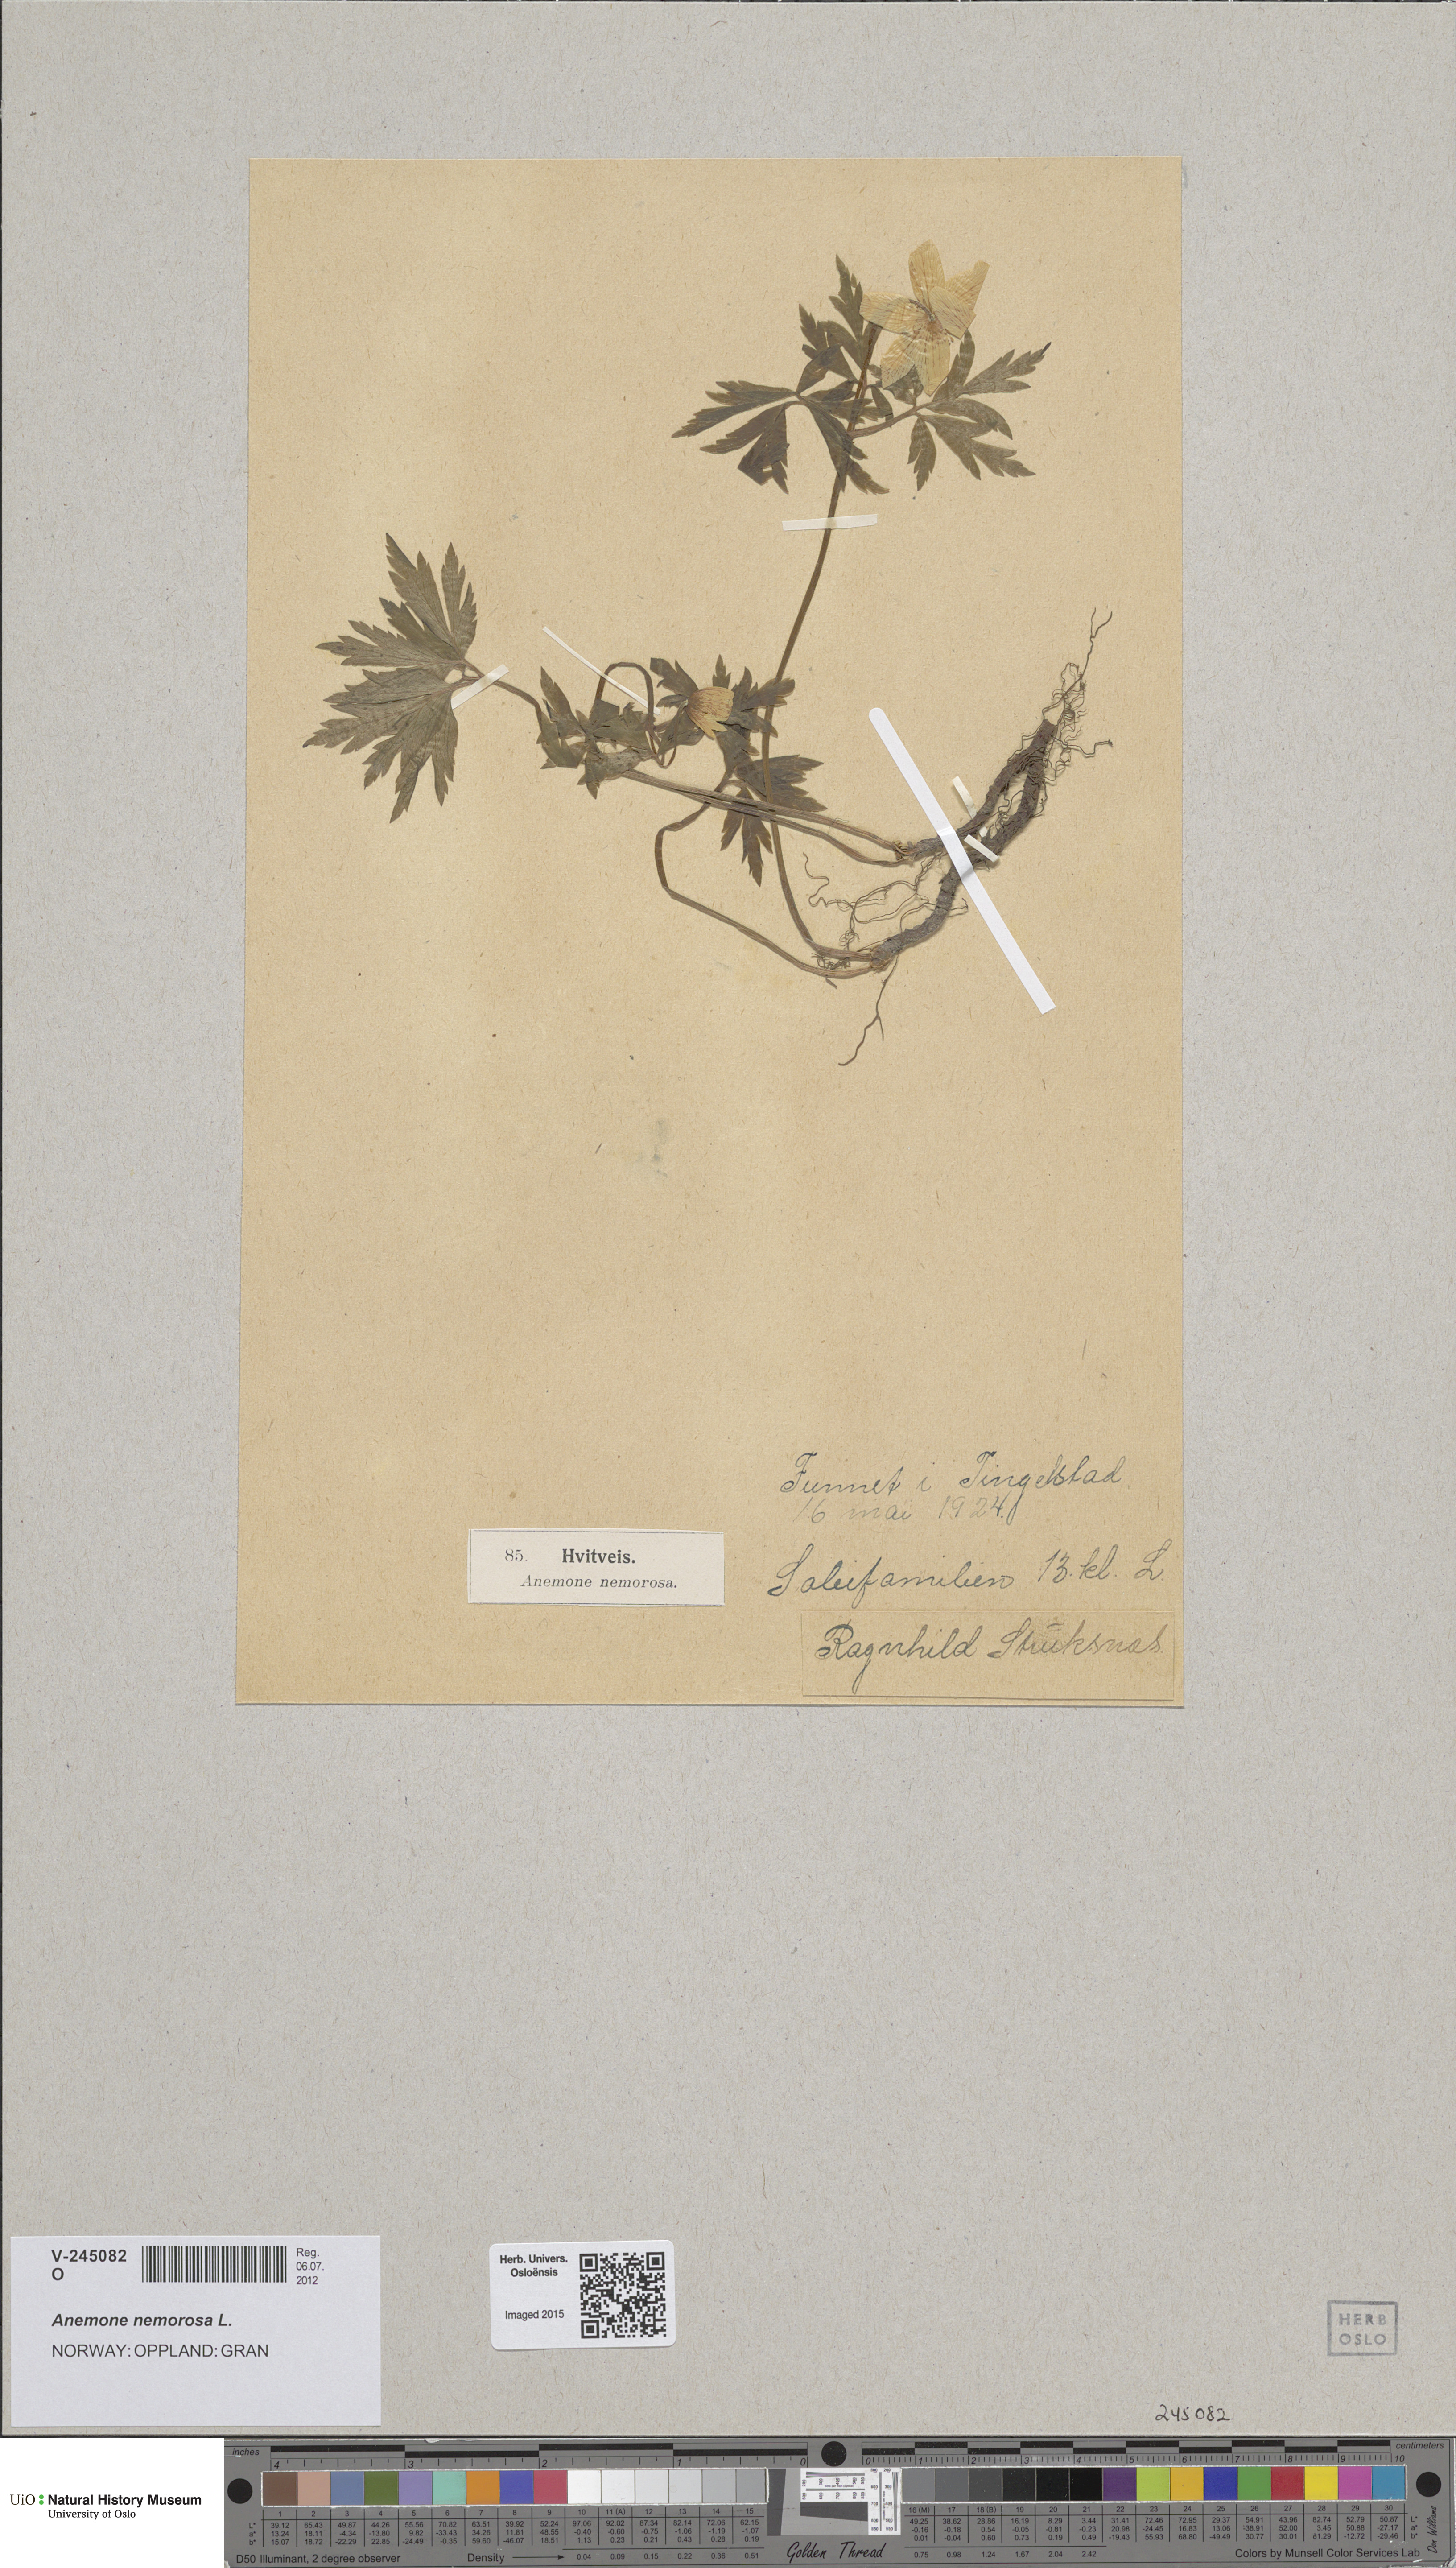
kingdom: Plantae
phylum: Tracheophyta
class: Magnoliopsida
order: Ranunculales
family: Ranunculaceae
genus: Anemone
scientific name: Anemone nemorosa
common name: Wood anemone
